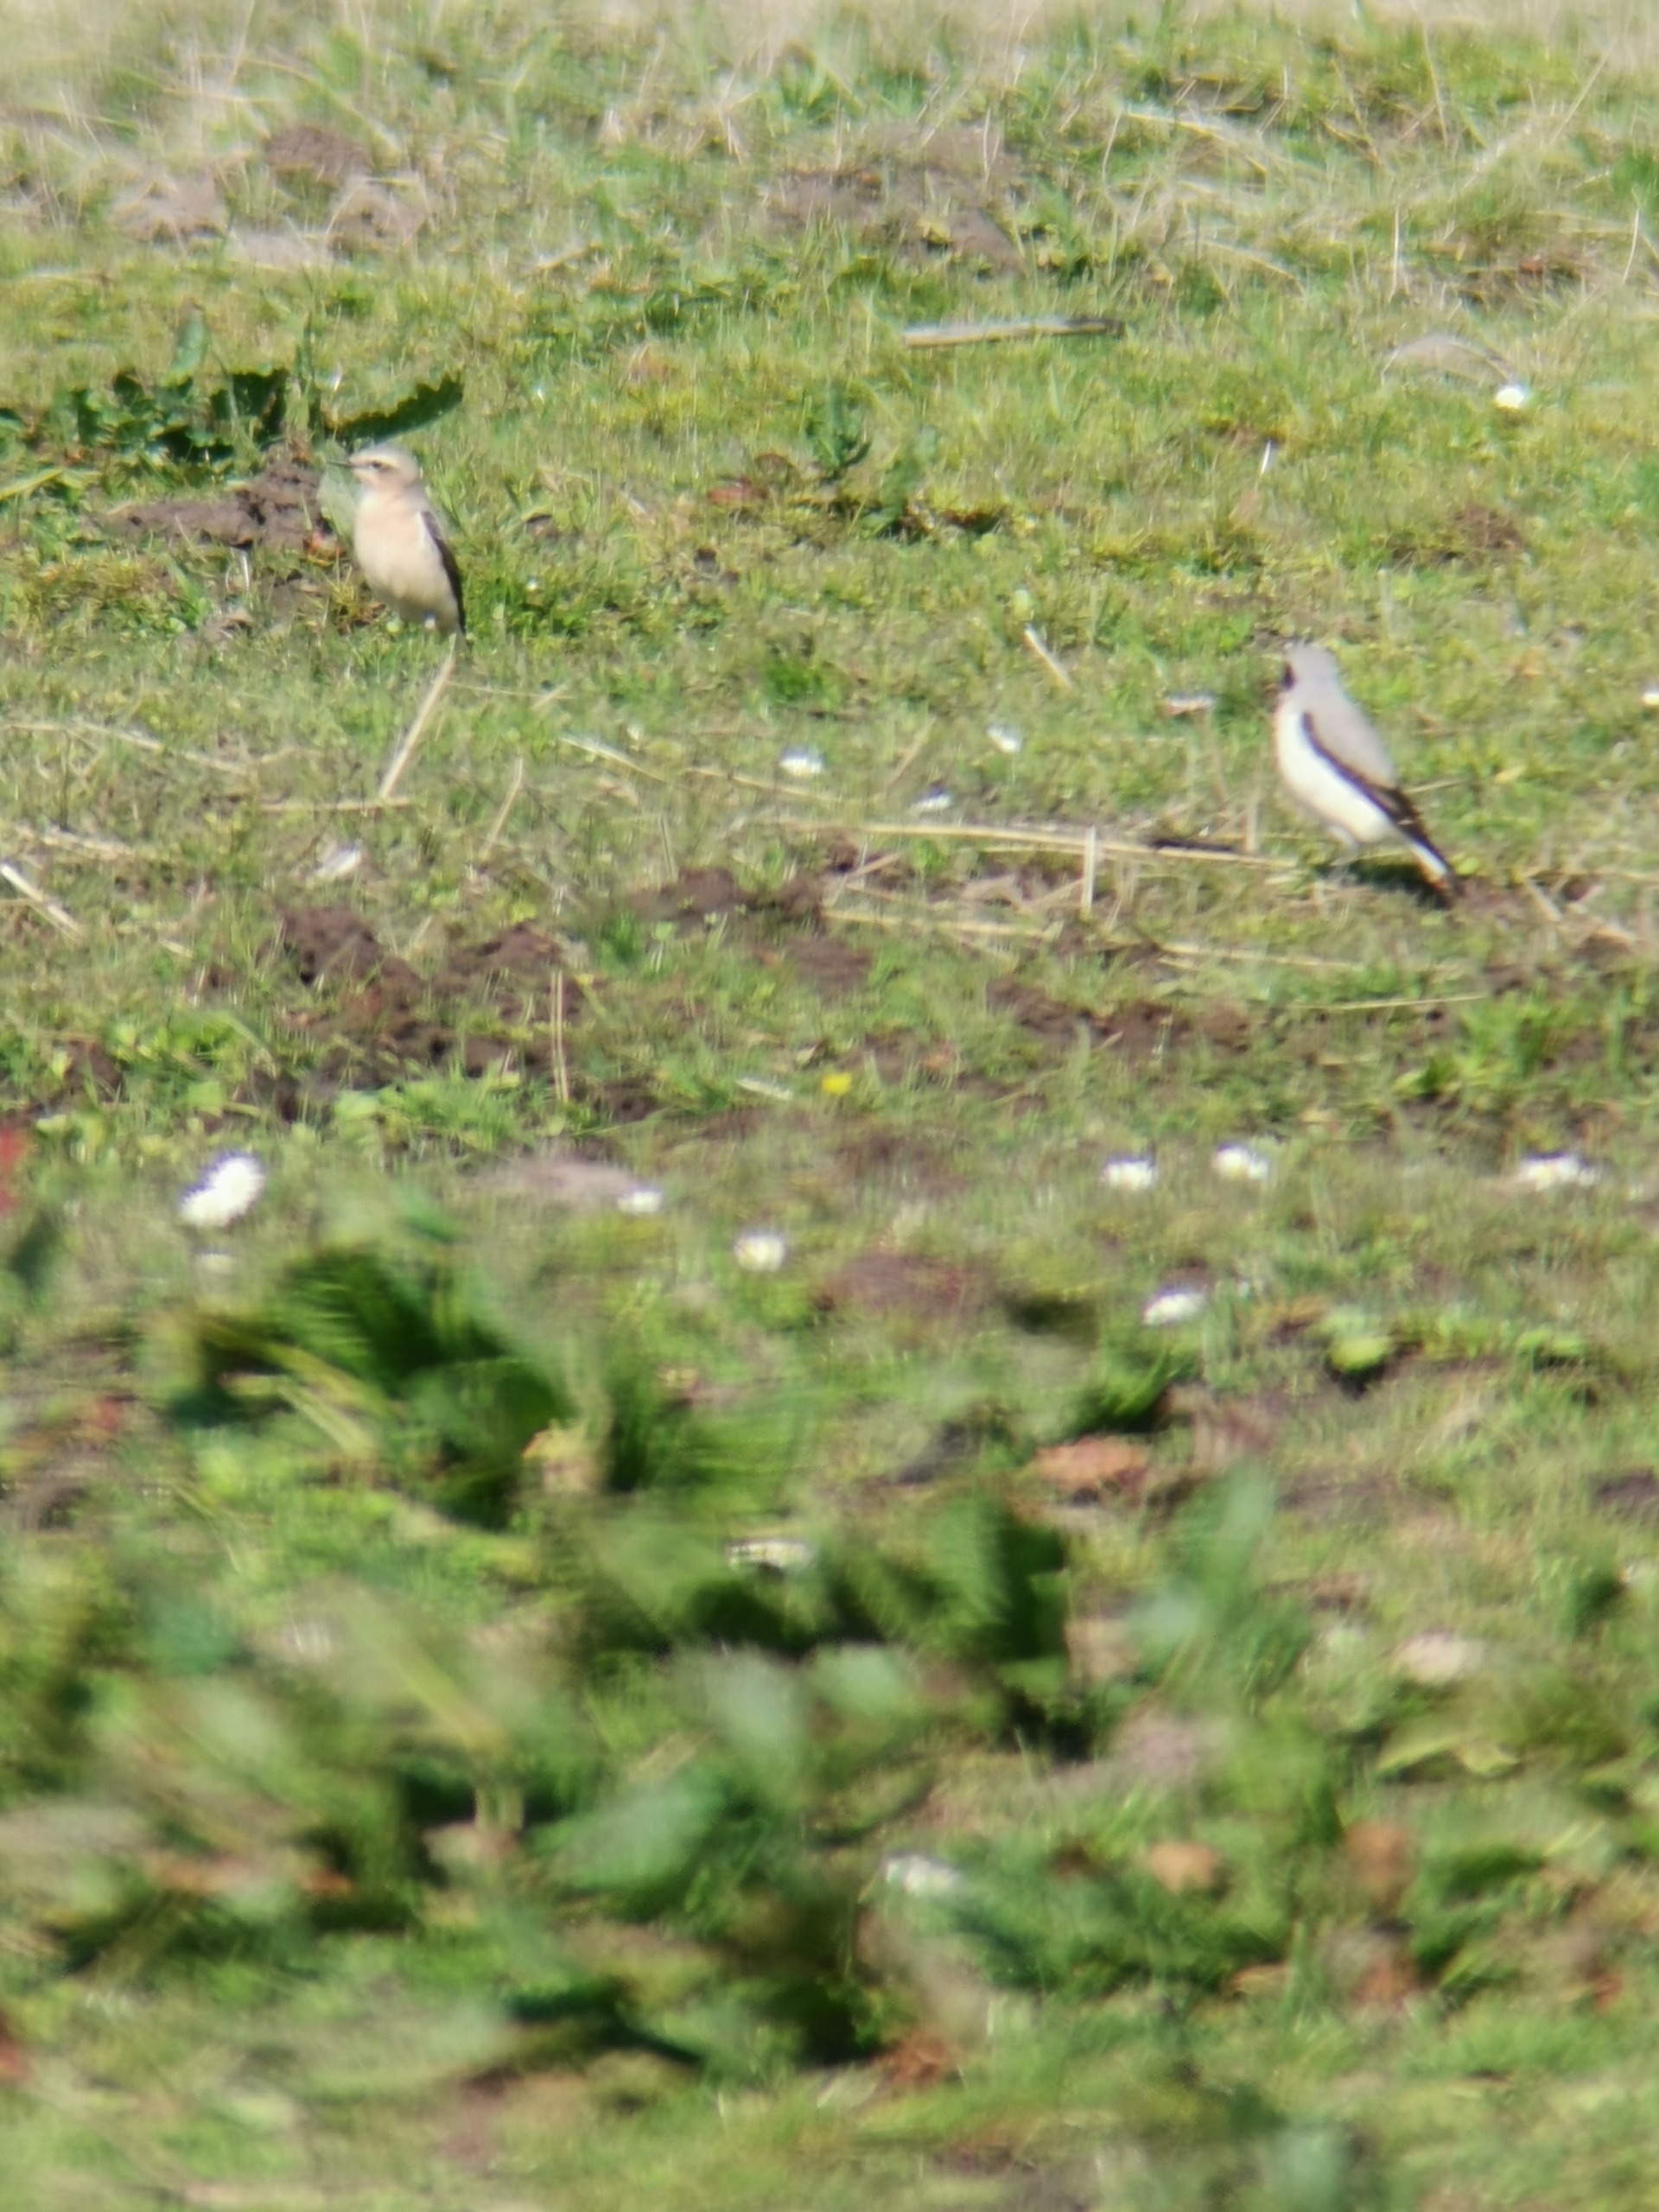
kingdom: Animalia
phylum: Chordata
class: Aves
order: Passeriformes
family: Muscicapidae
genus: Oenanthe
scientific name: Oenanthe oenanthe
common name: Stenpikker
